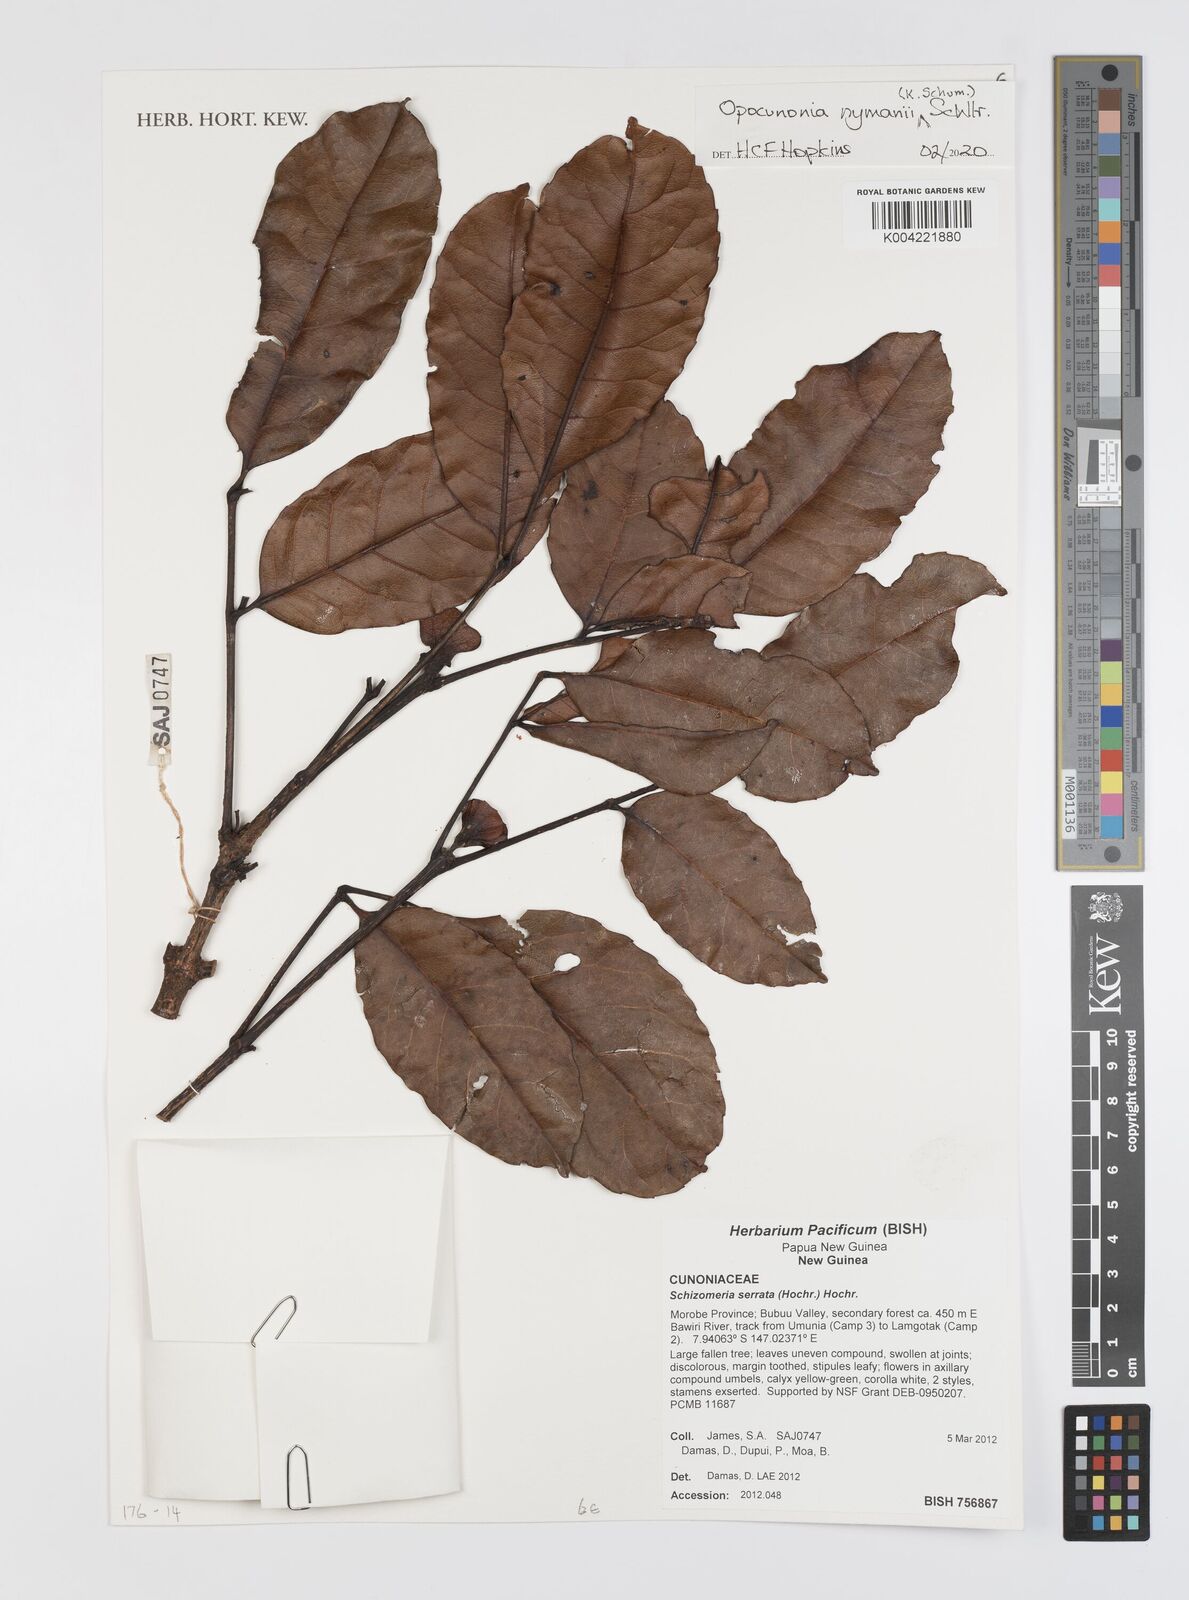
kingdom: Plantae
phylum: Tracheophyta
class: Magnoliopsida
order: Oxalidales
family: Cunoniaceae
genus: Opocunonia
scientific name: Opocunonia nymanii
